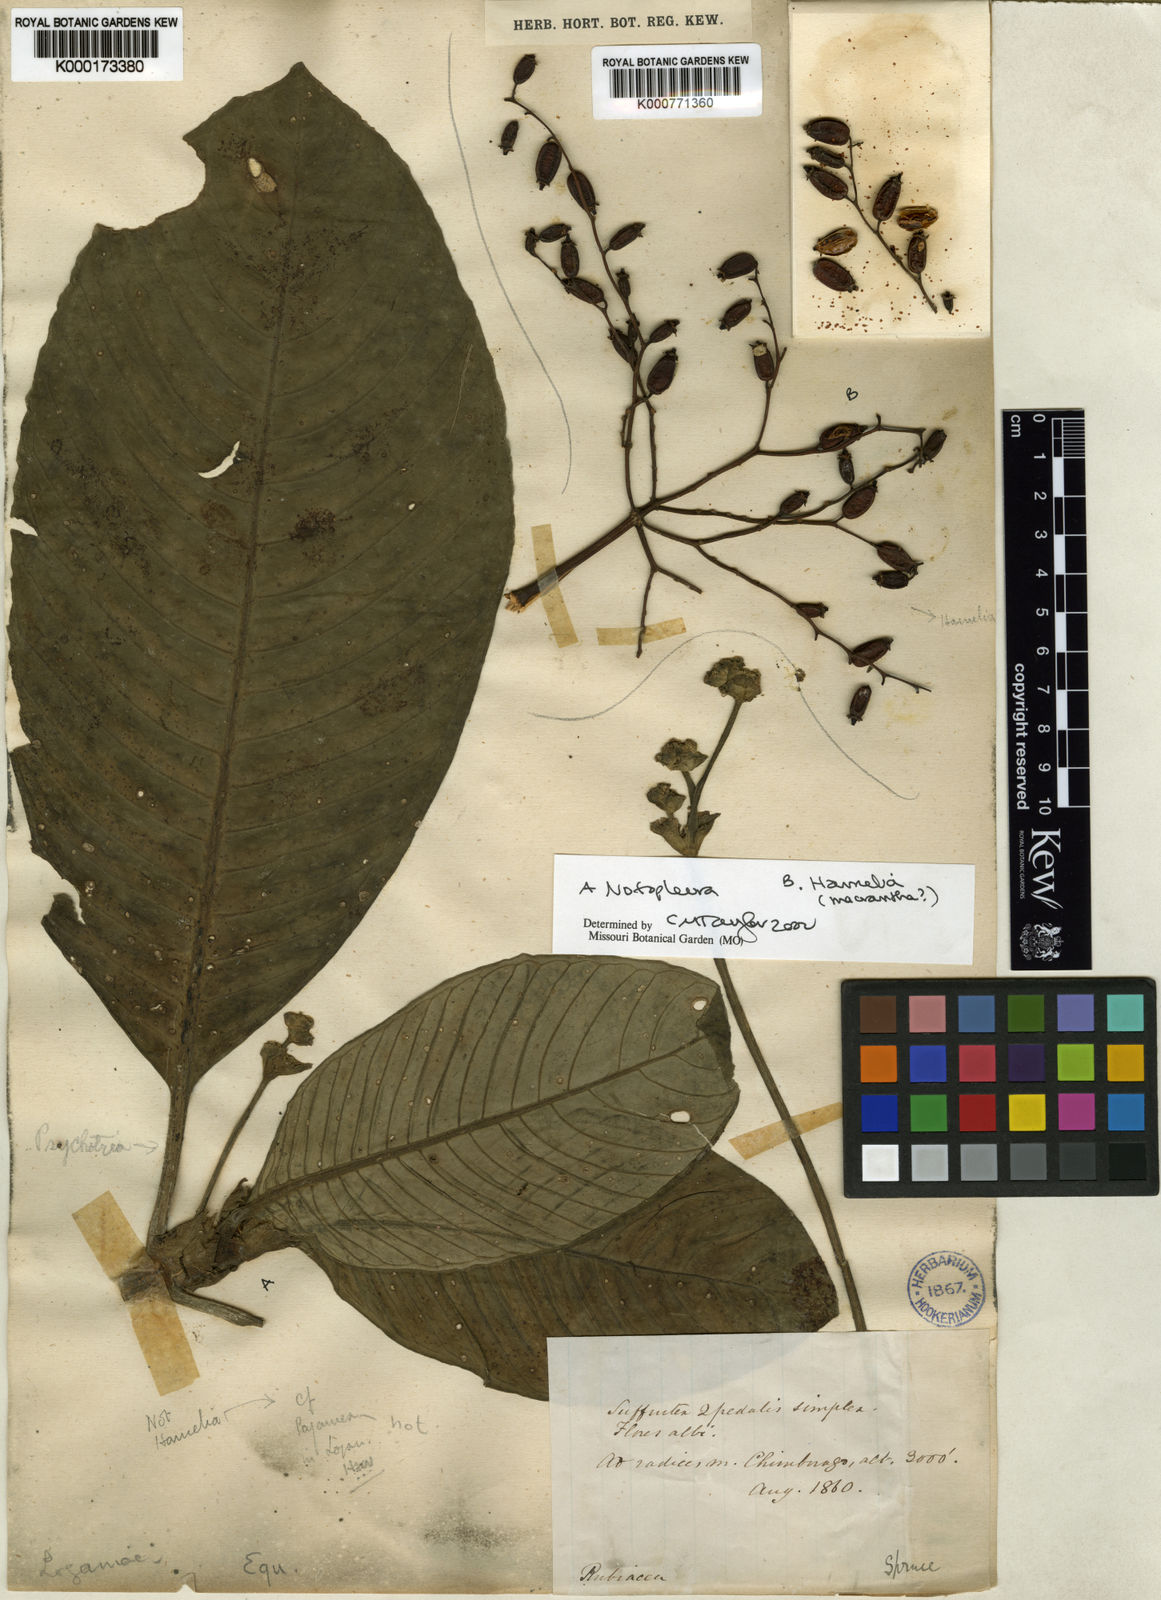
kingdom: Plantae
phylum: Tracheophyta
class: Magnoliopsida
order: Gentianales
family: Rubiaceae
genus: Notopleura
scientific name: Notopleura
